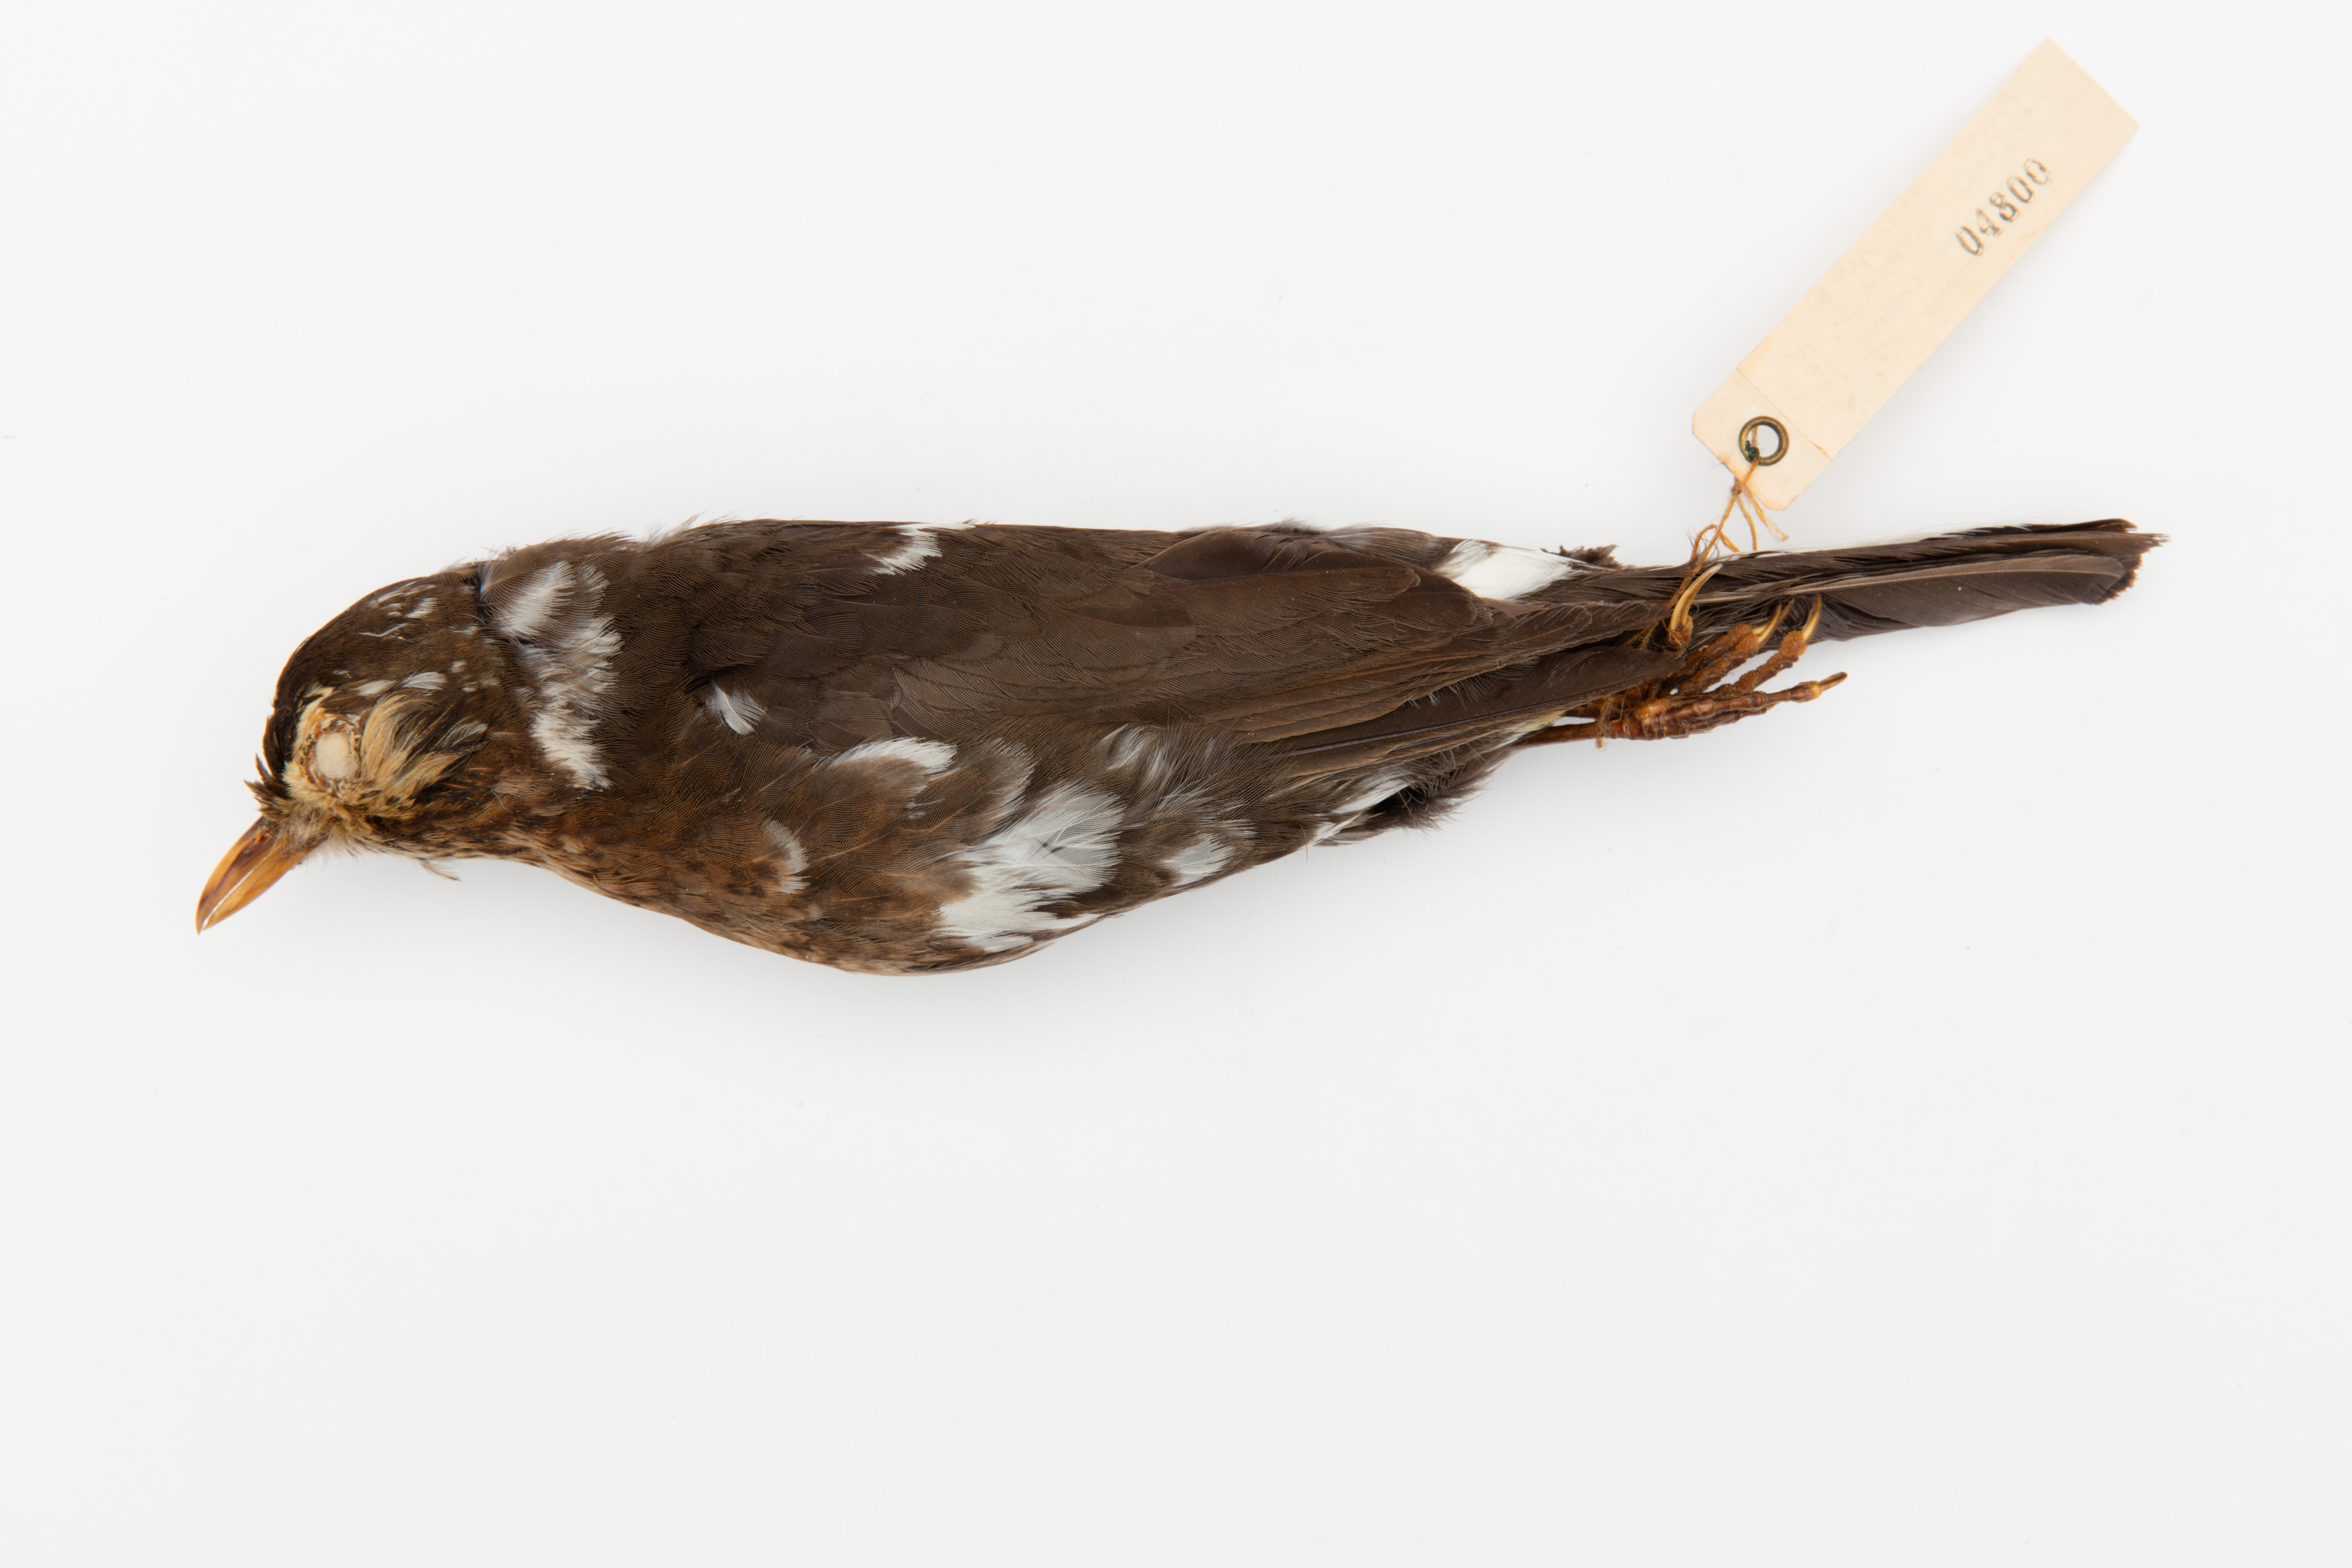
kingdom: Animalia
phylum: Chordata
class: Aves
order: Passeriformes
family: Turdidae
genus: Turdus
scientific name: Turdus merula
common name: Common blackbird
